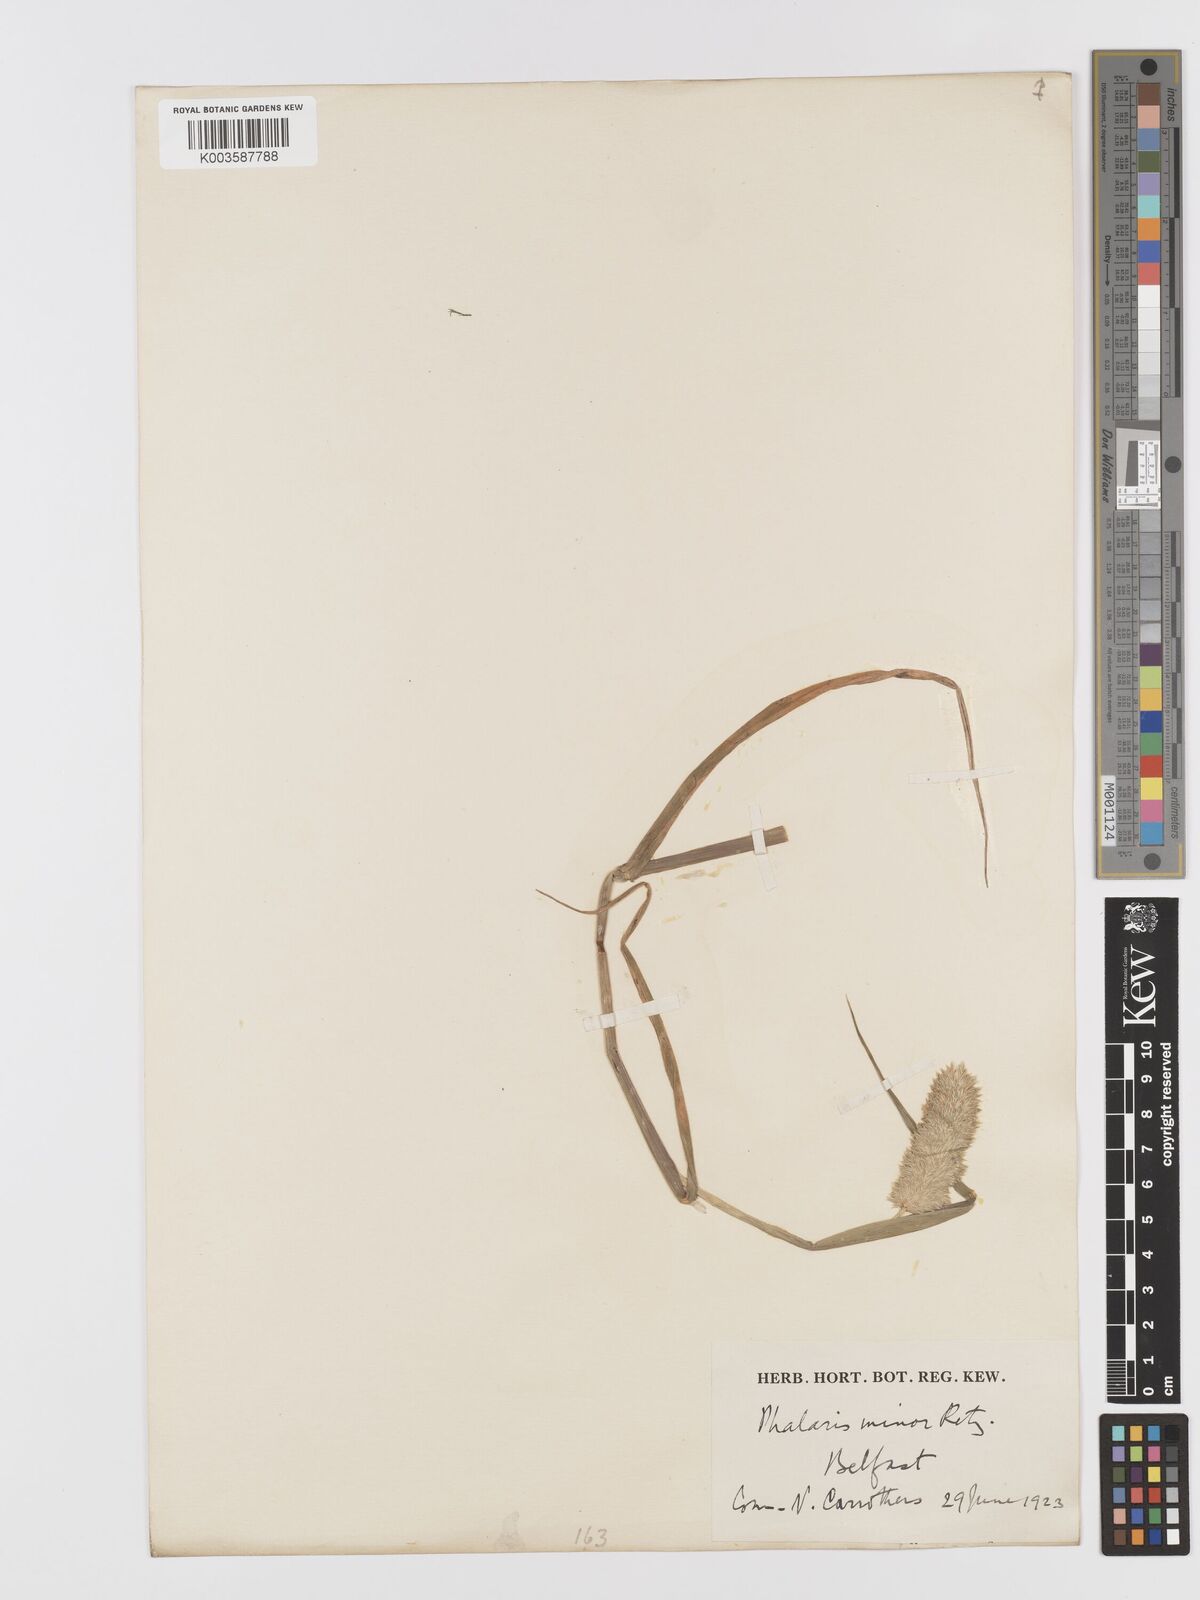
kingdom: Plantae
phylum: Tracheophyta
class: Liliopsida
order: Poales
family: Poaceae
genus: Phalaris
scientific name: Phalaris minor
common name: Littleseed canarygrass
